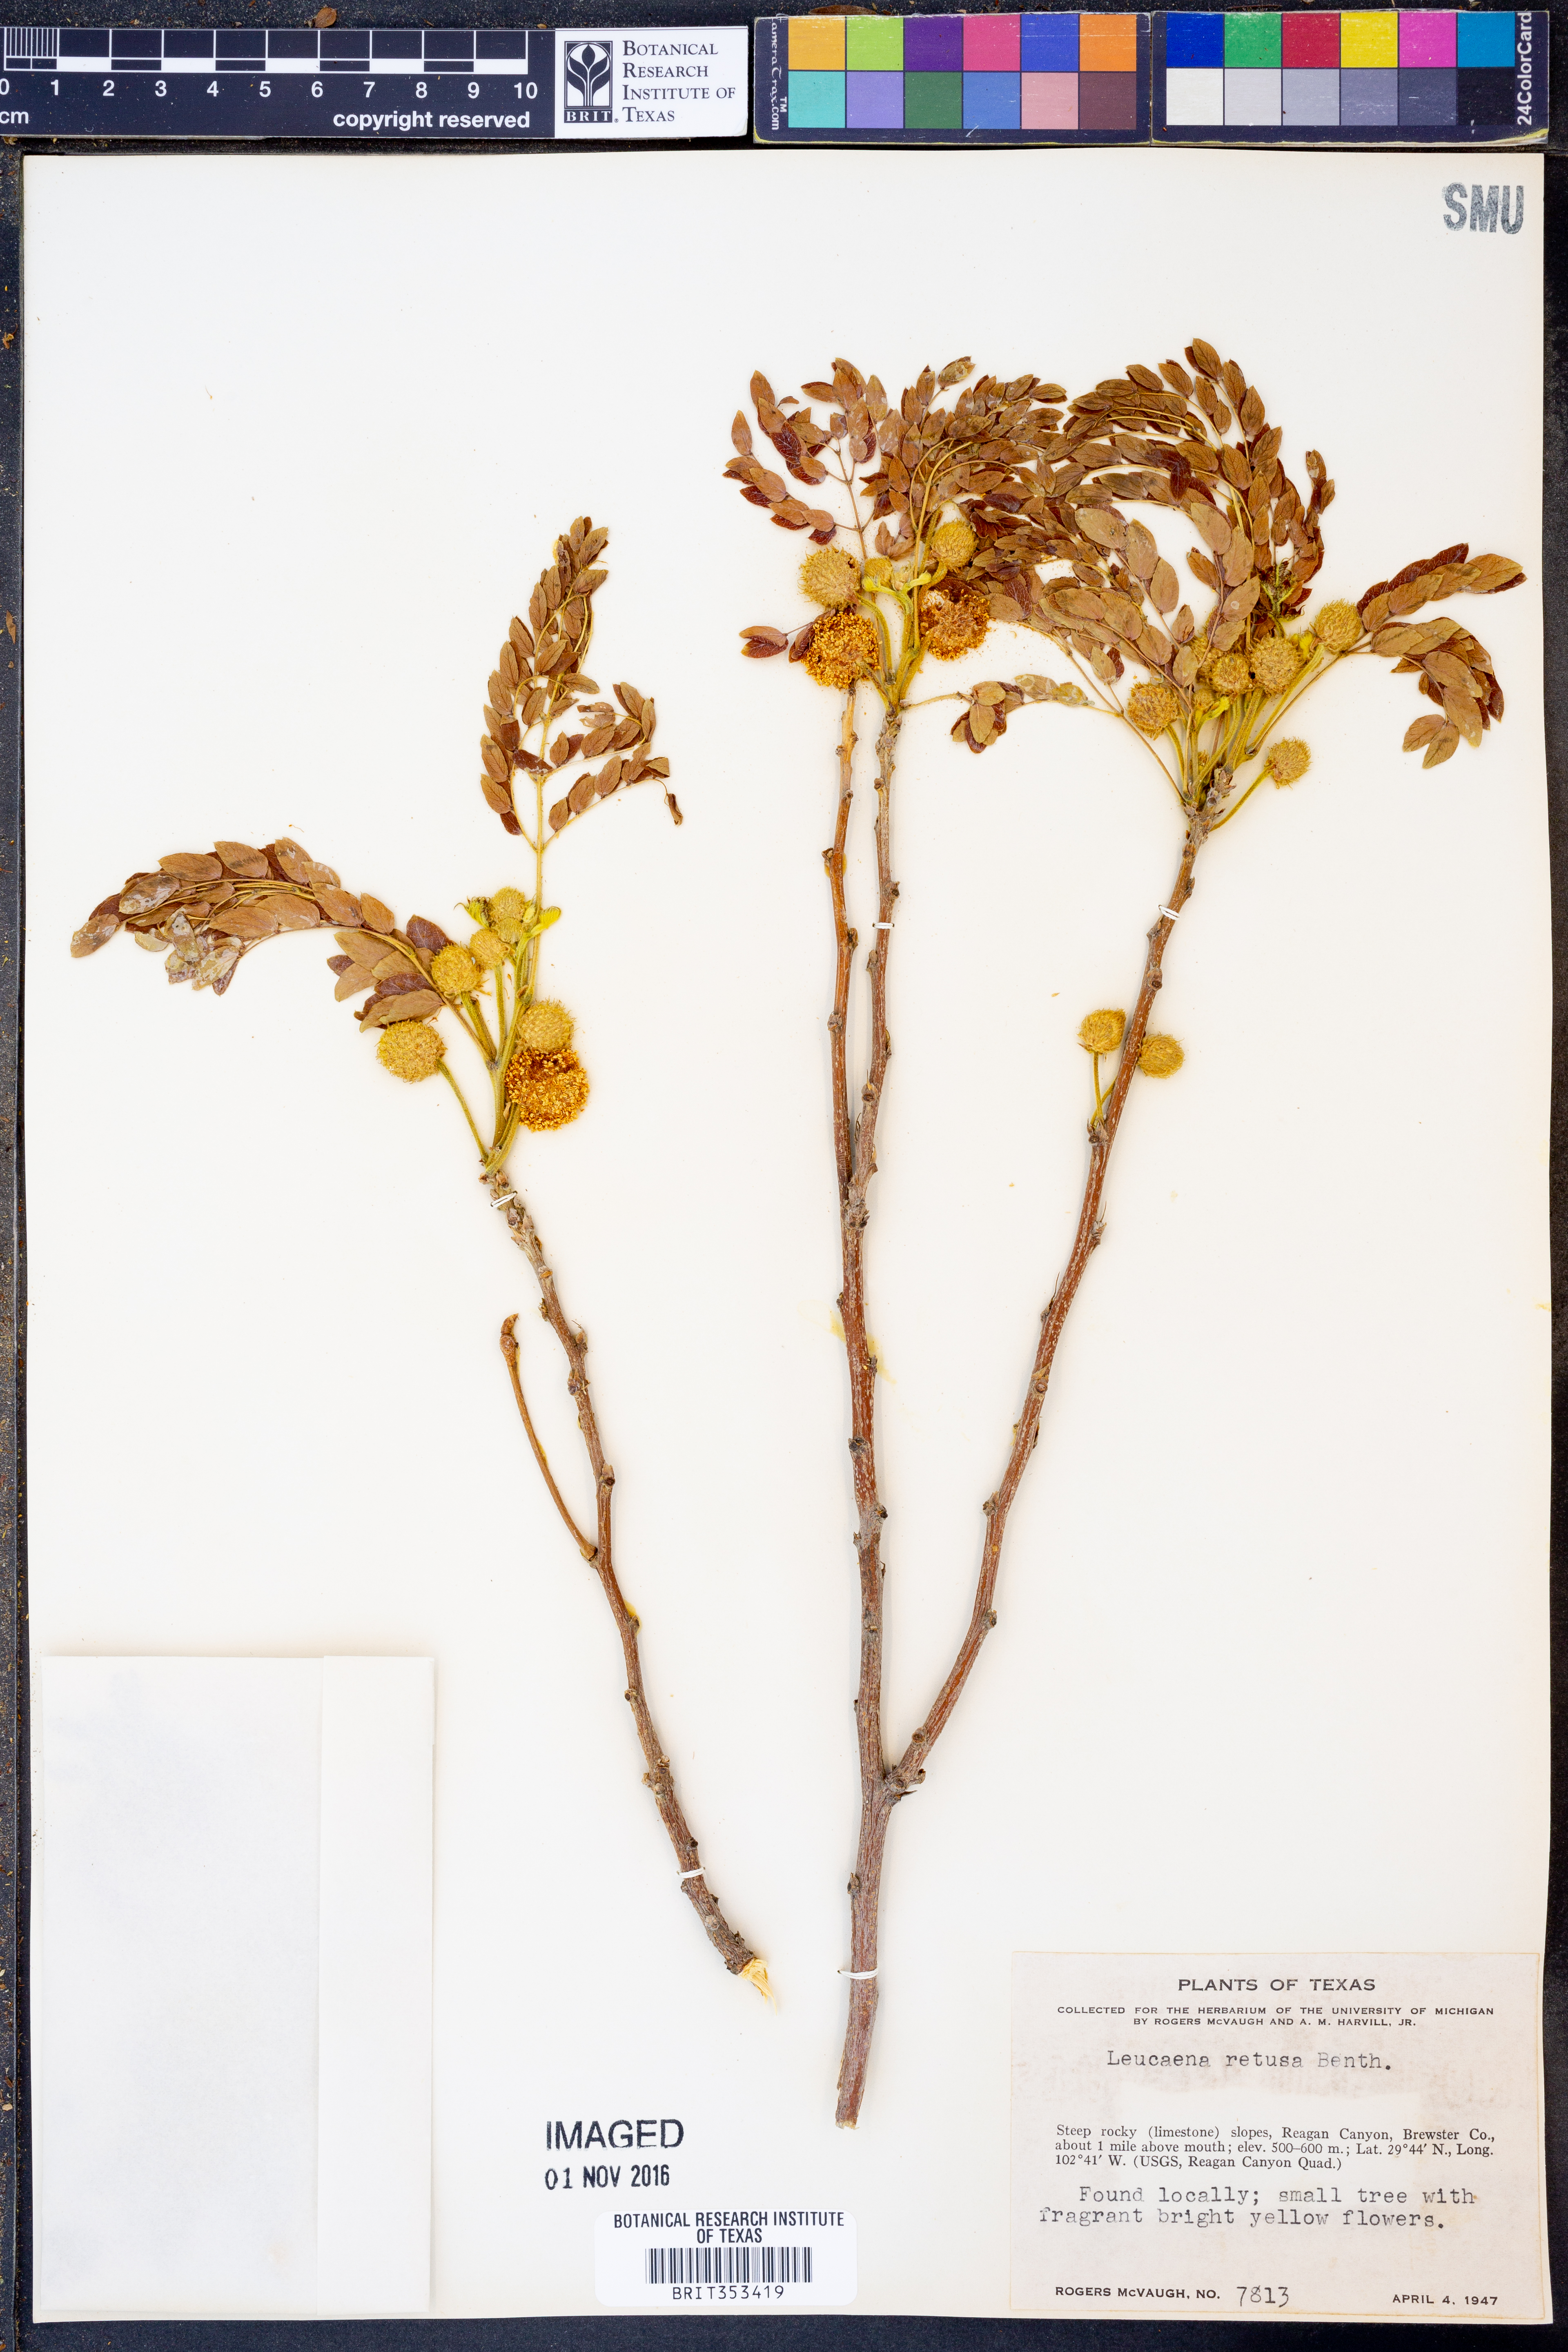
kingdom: Plantae
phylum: Tracheophyta
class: Magnoliopsida
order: Fabales
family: Fabaceae
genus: Leucaena
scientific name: Leucaena retusa
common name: Littleleaf leadtree
